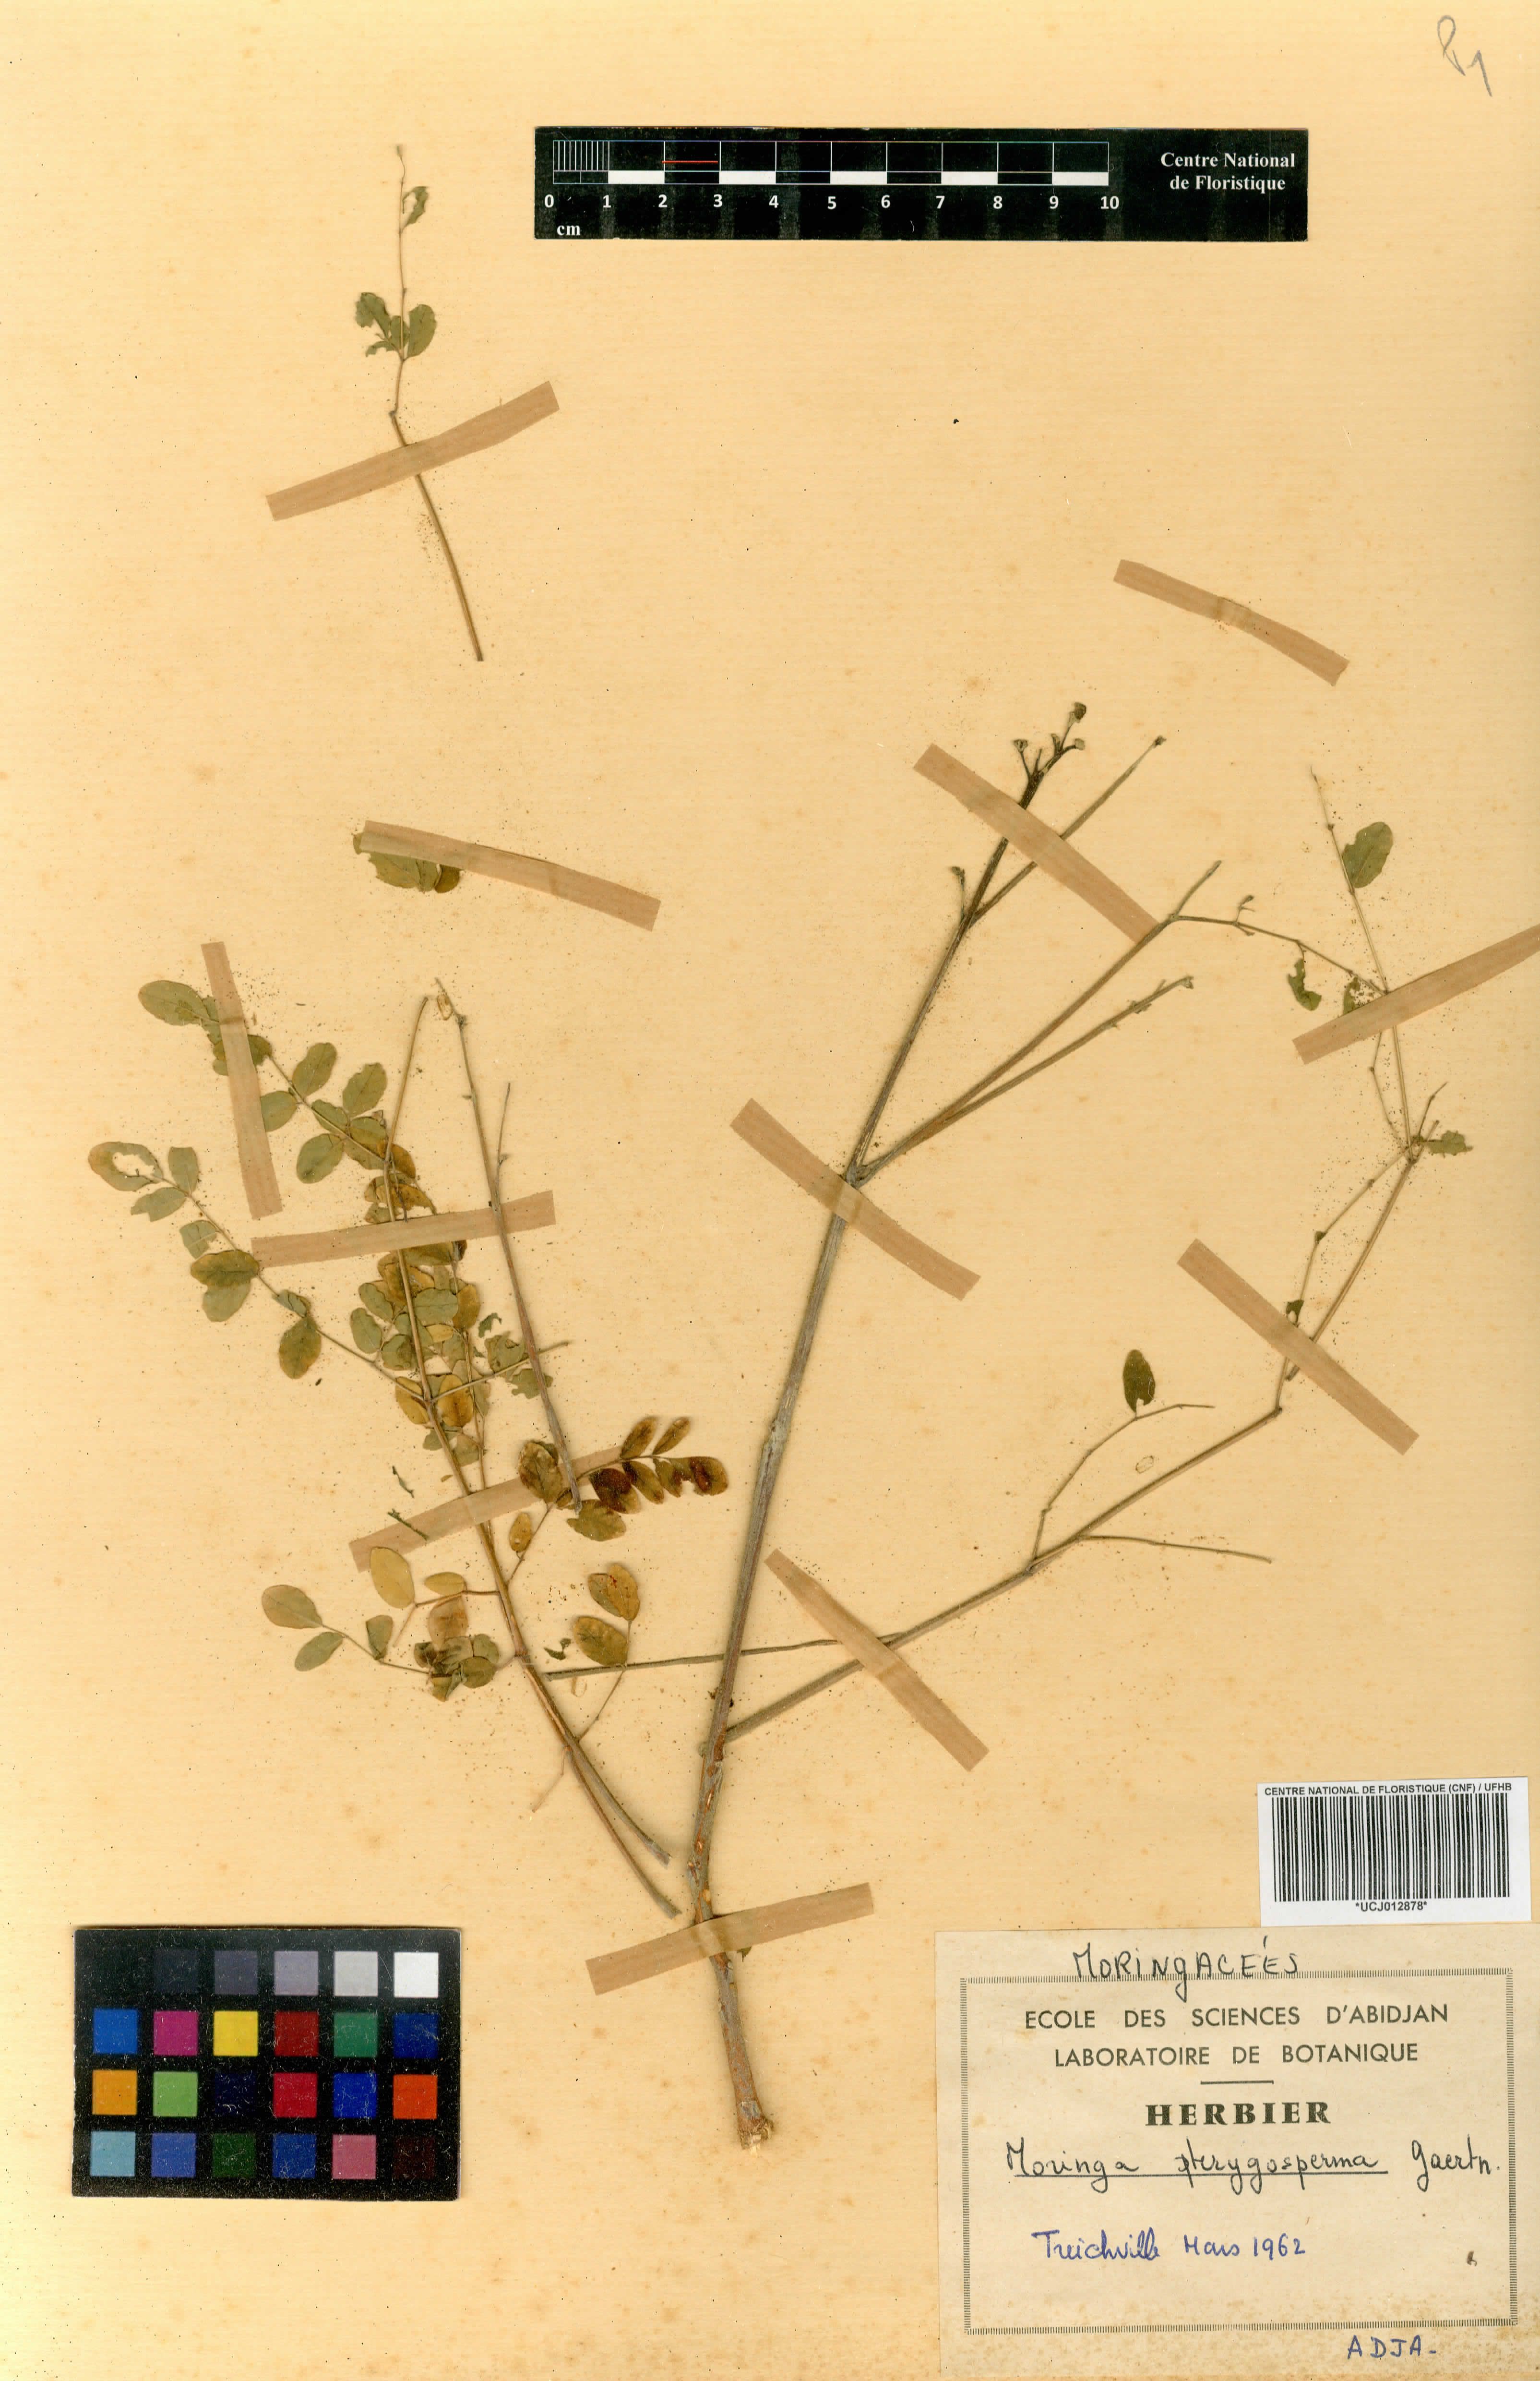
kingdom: Plantae
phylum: Tracheophyta
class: Magnoliopsida
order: Brassicales
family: Moringaceae
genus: Moringa
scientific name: Moringa oleifera
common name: Horseradish-tree
